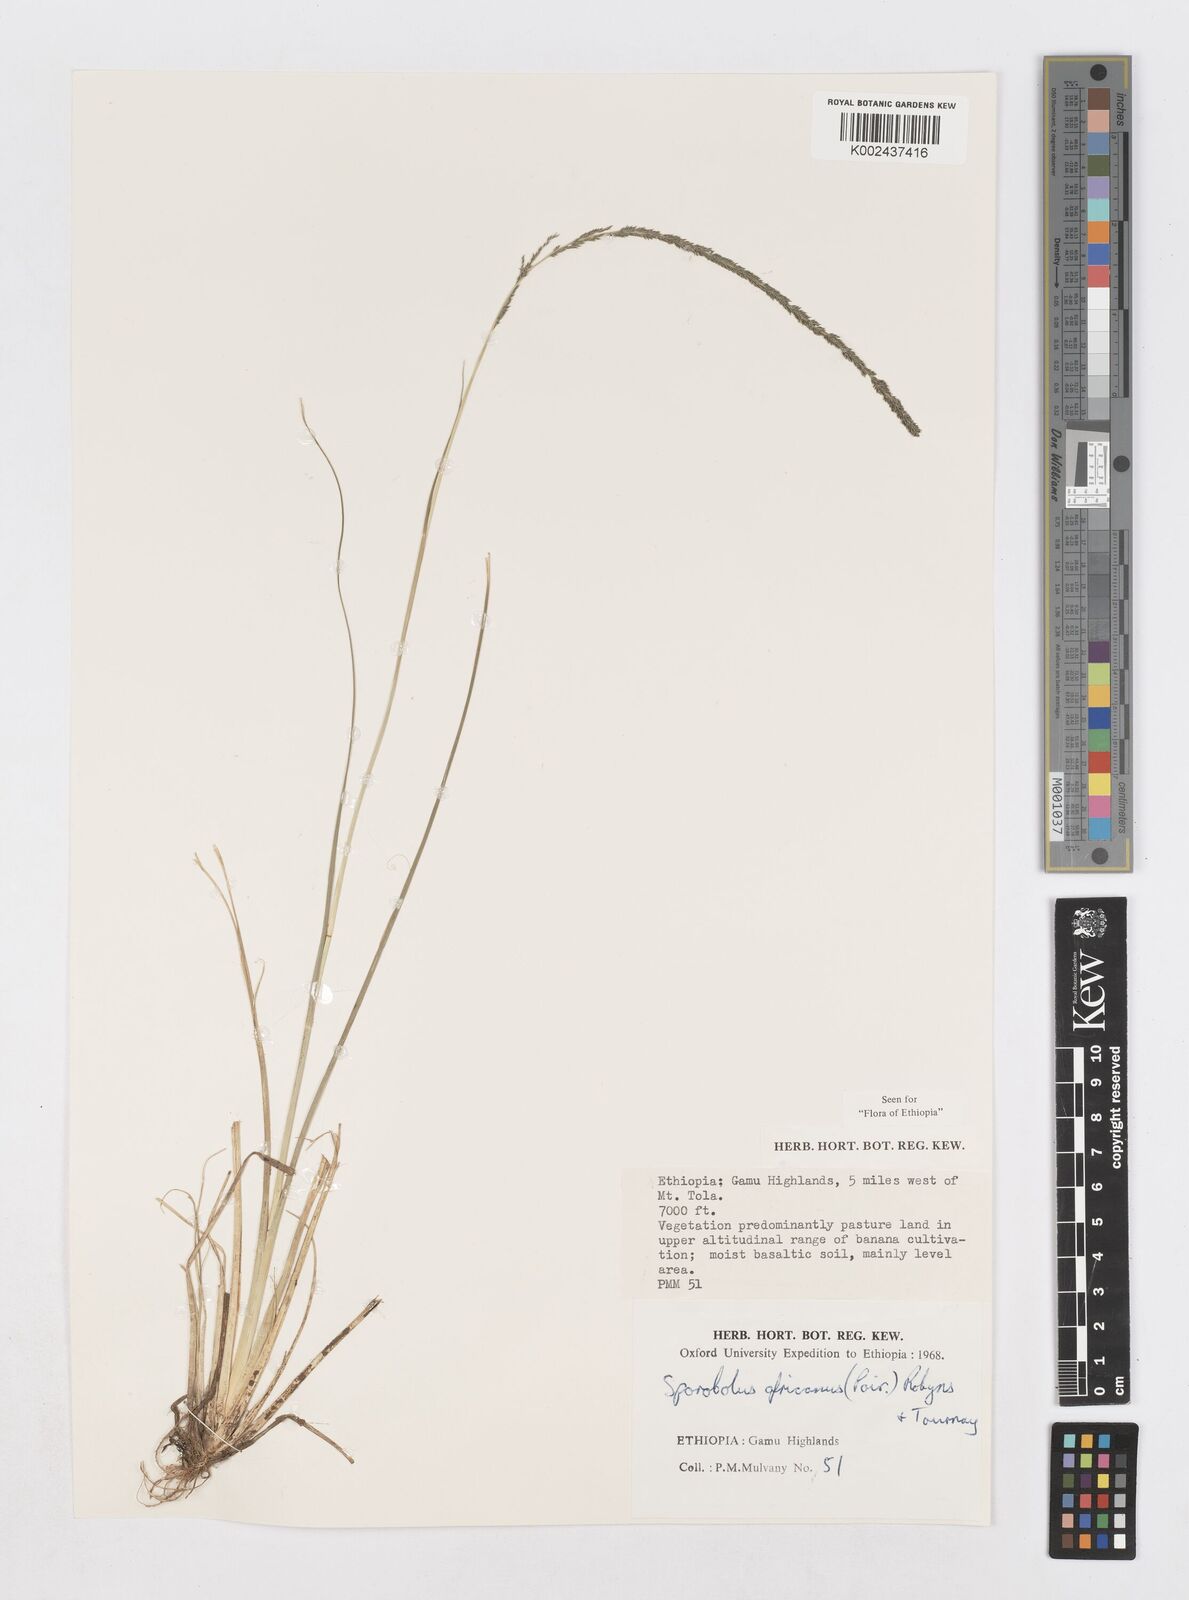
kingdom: Plantae
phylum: Tracheophyta
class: Liliopsida
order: Poales
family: Poaceae
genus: Sporobolus
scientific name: Sporobolus africanus
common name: African dropseed
